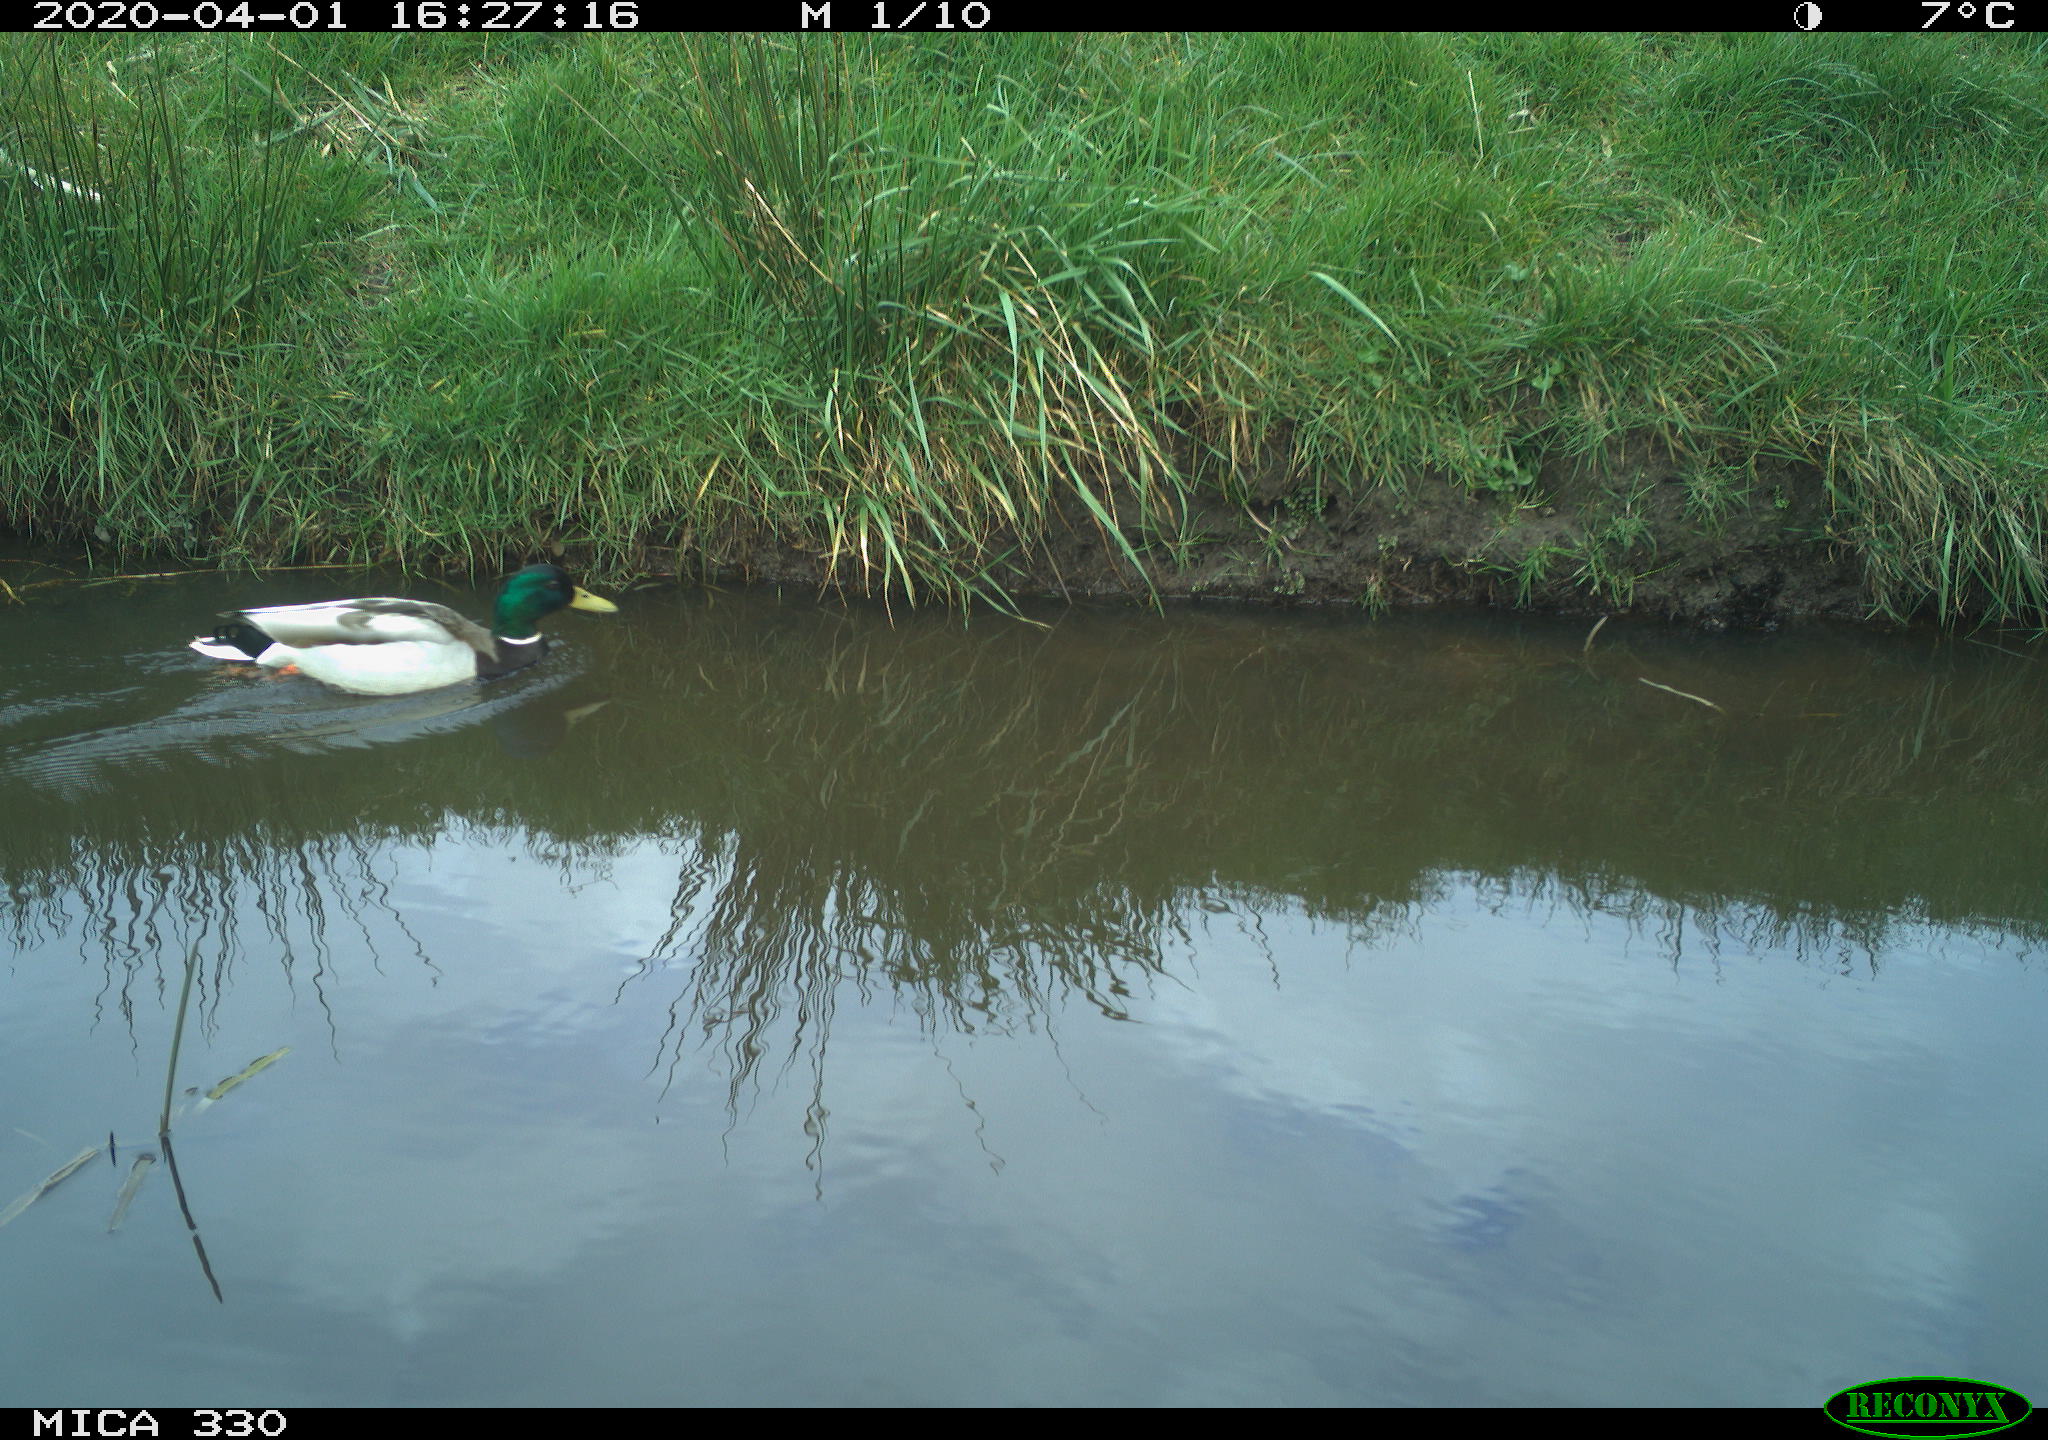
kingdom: Animalia
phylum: Chordata
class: Aves
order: Anseriformes
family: Anatidae
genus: Anas
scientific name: Anas platyrhynchos
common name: Mallard
